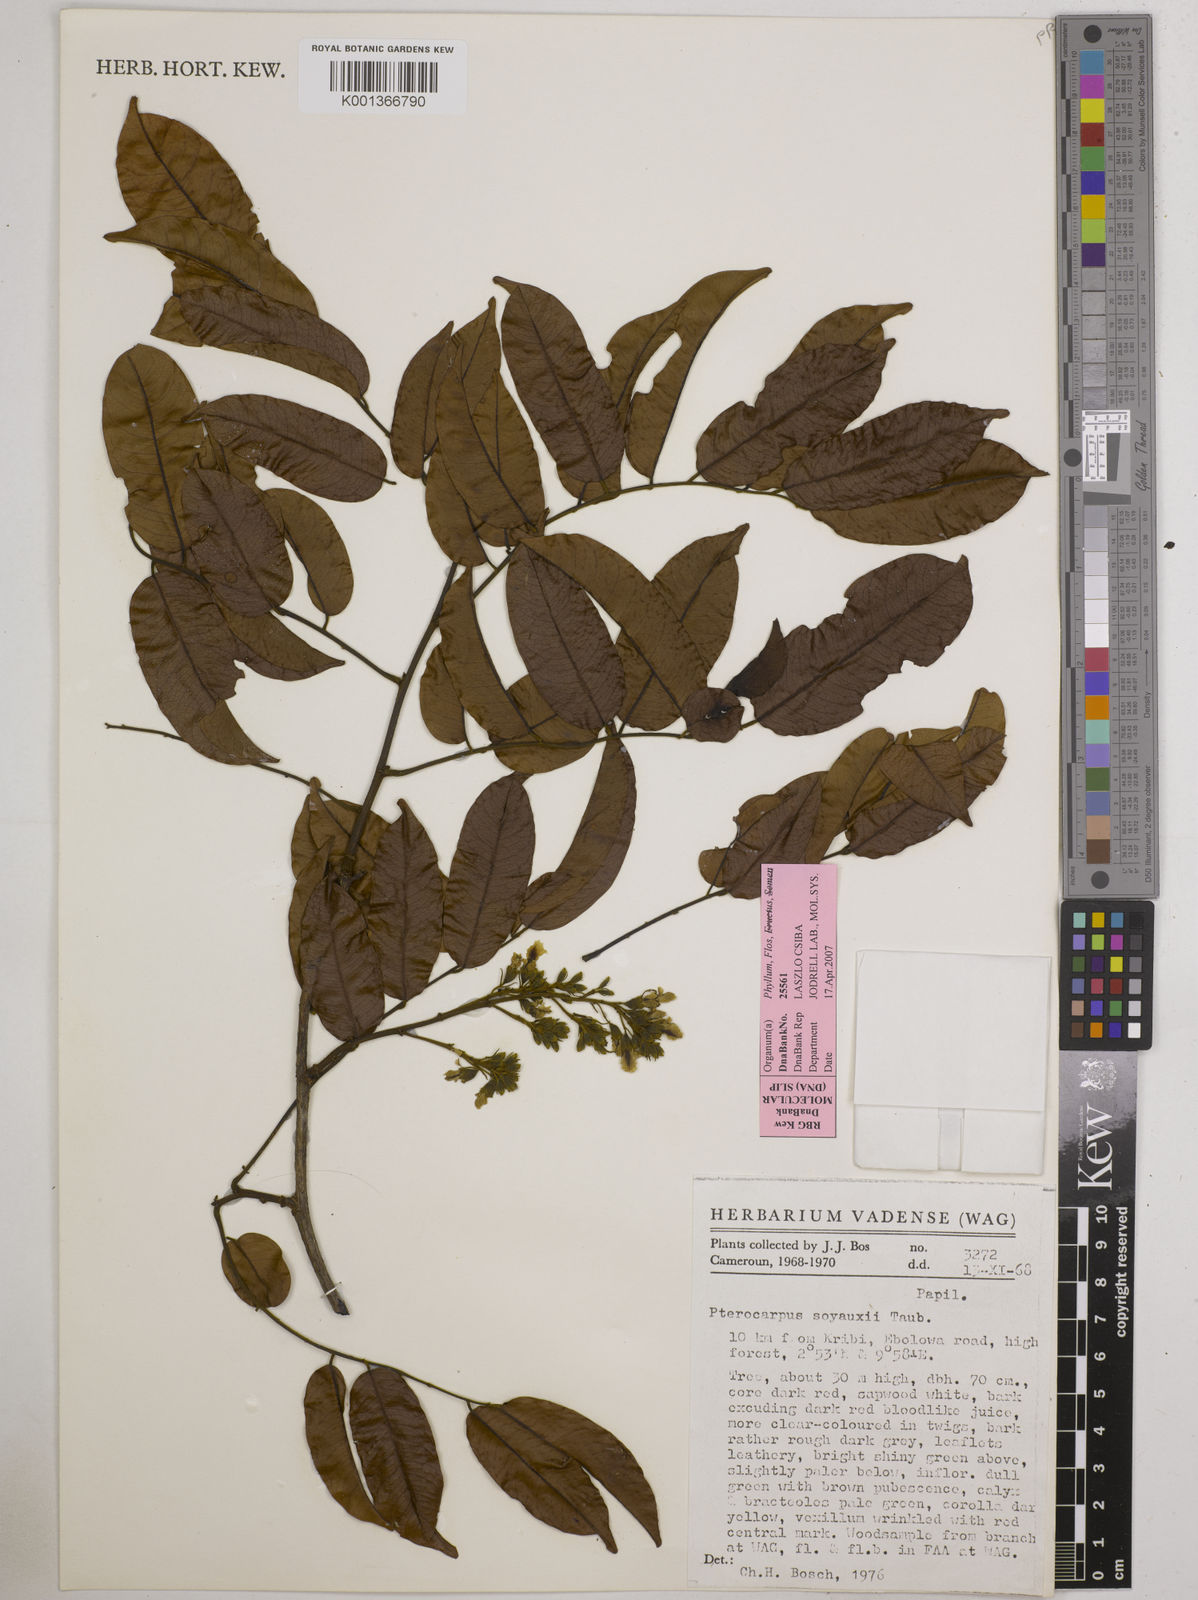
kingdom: Plantae
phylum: Tracheophyta
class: Magnoliopsida
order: Fabales
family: Fabaceae
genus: Pterocarpus
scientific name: Pterocarpus soyauxii
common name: African coralwood
